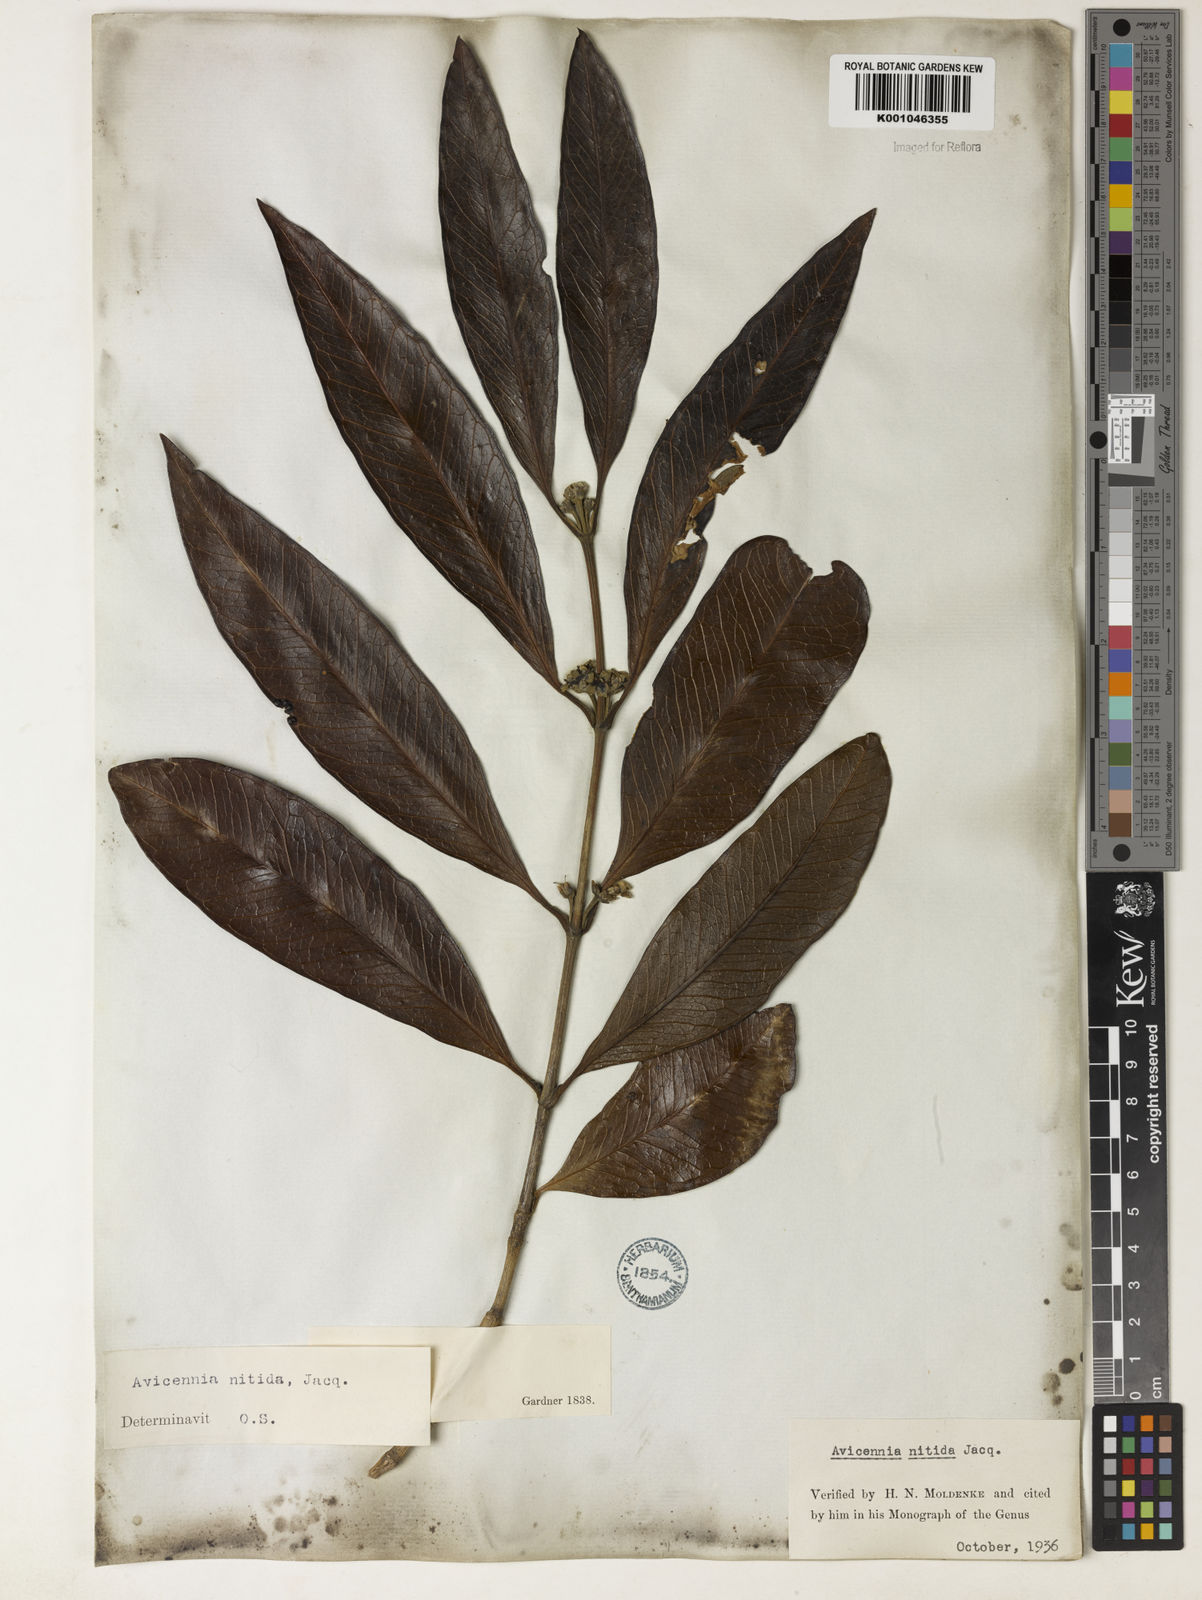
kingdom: Plantae
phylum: Tracheophyta
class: Magnoliopsida
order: Lamiales
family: Acanthaceae
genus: Avicennia
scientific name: Avicennia germinans
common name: Black mangrove
